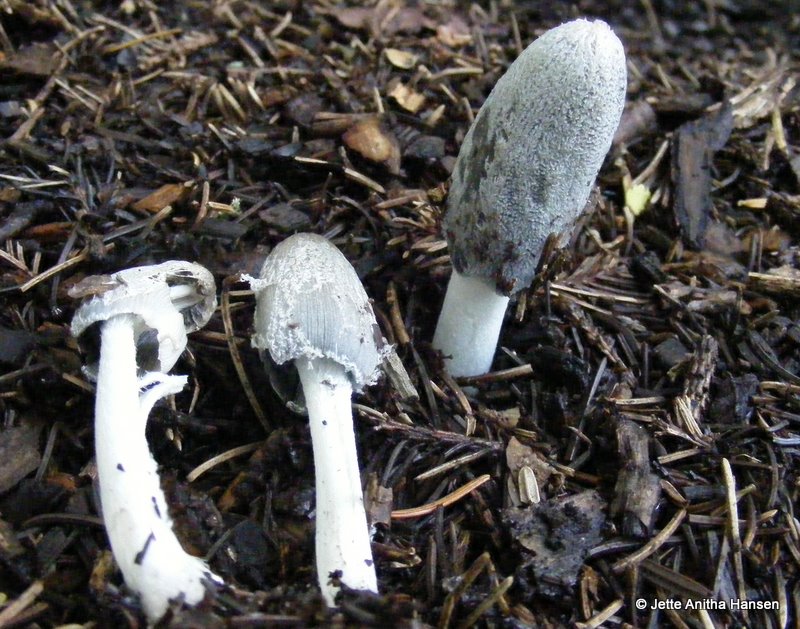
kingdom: Fungi
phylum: Basidiomycota
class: Agaricomycetes
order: Agaricales
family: Psathyrellaceae
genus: Coprinopsis
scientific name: Coprinopsis lagopus
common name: dunstokket blækhat
